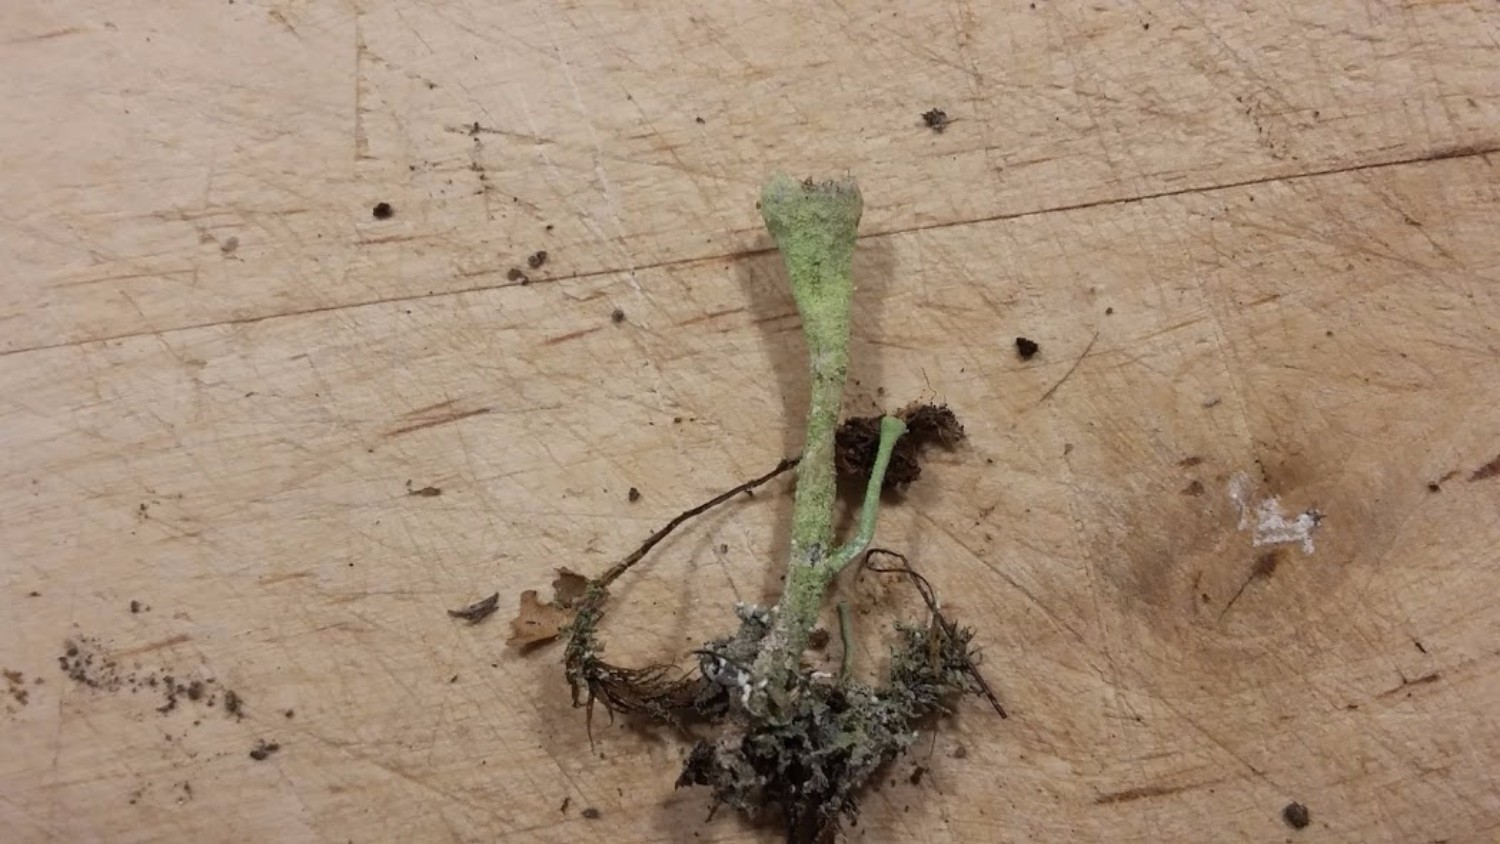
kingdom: Fungi
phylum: Ascomycota
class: Lecanoromycetes
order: Lecanorales
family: Cladoniaceae
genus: Cladonia
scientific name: Cladonia
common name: brungrøn bægerlav
